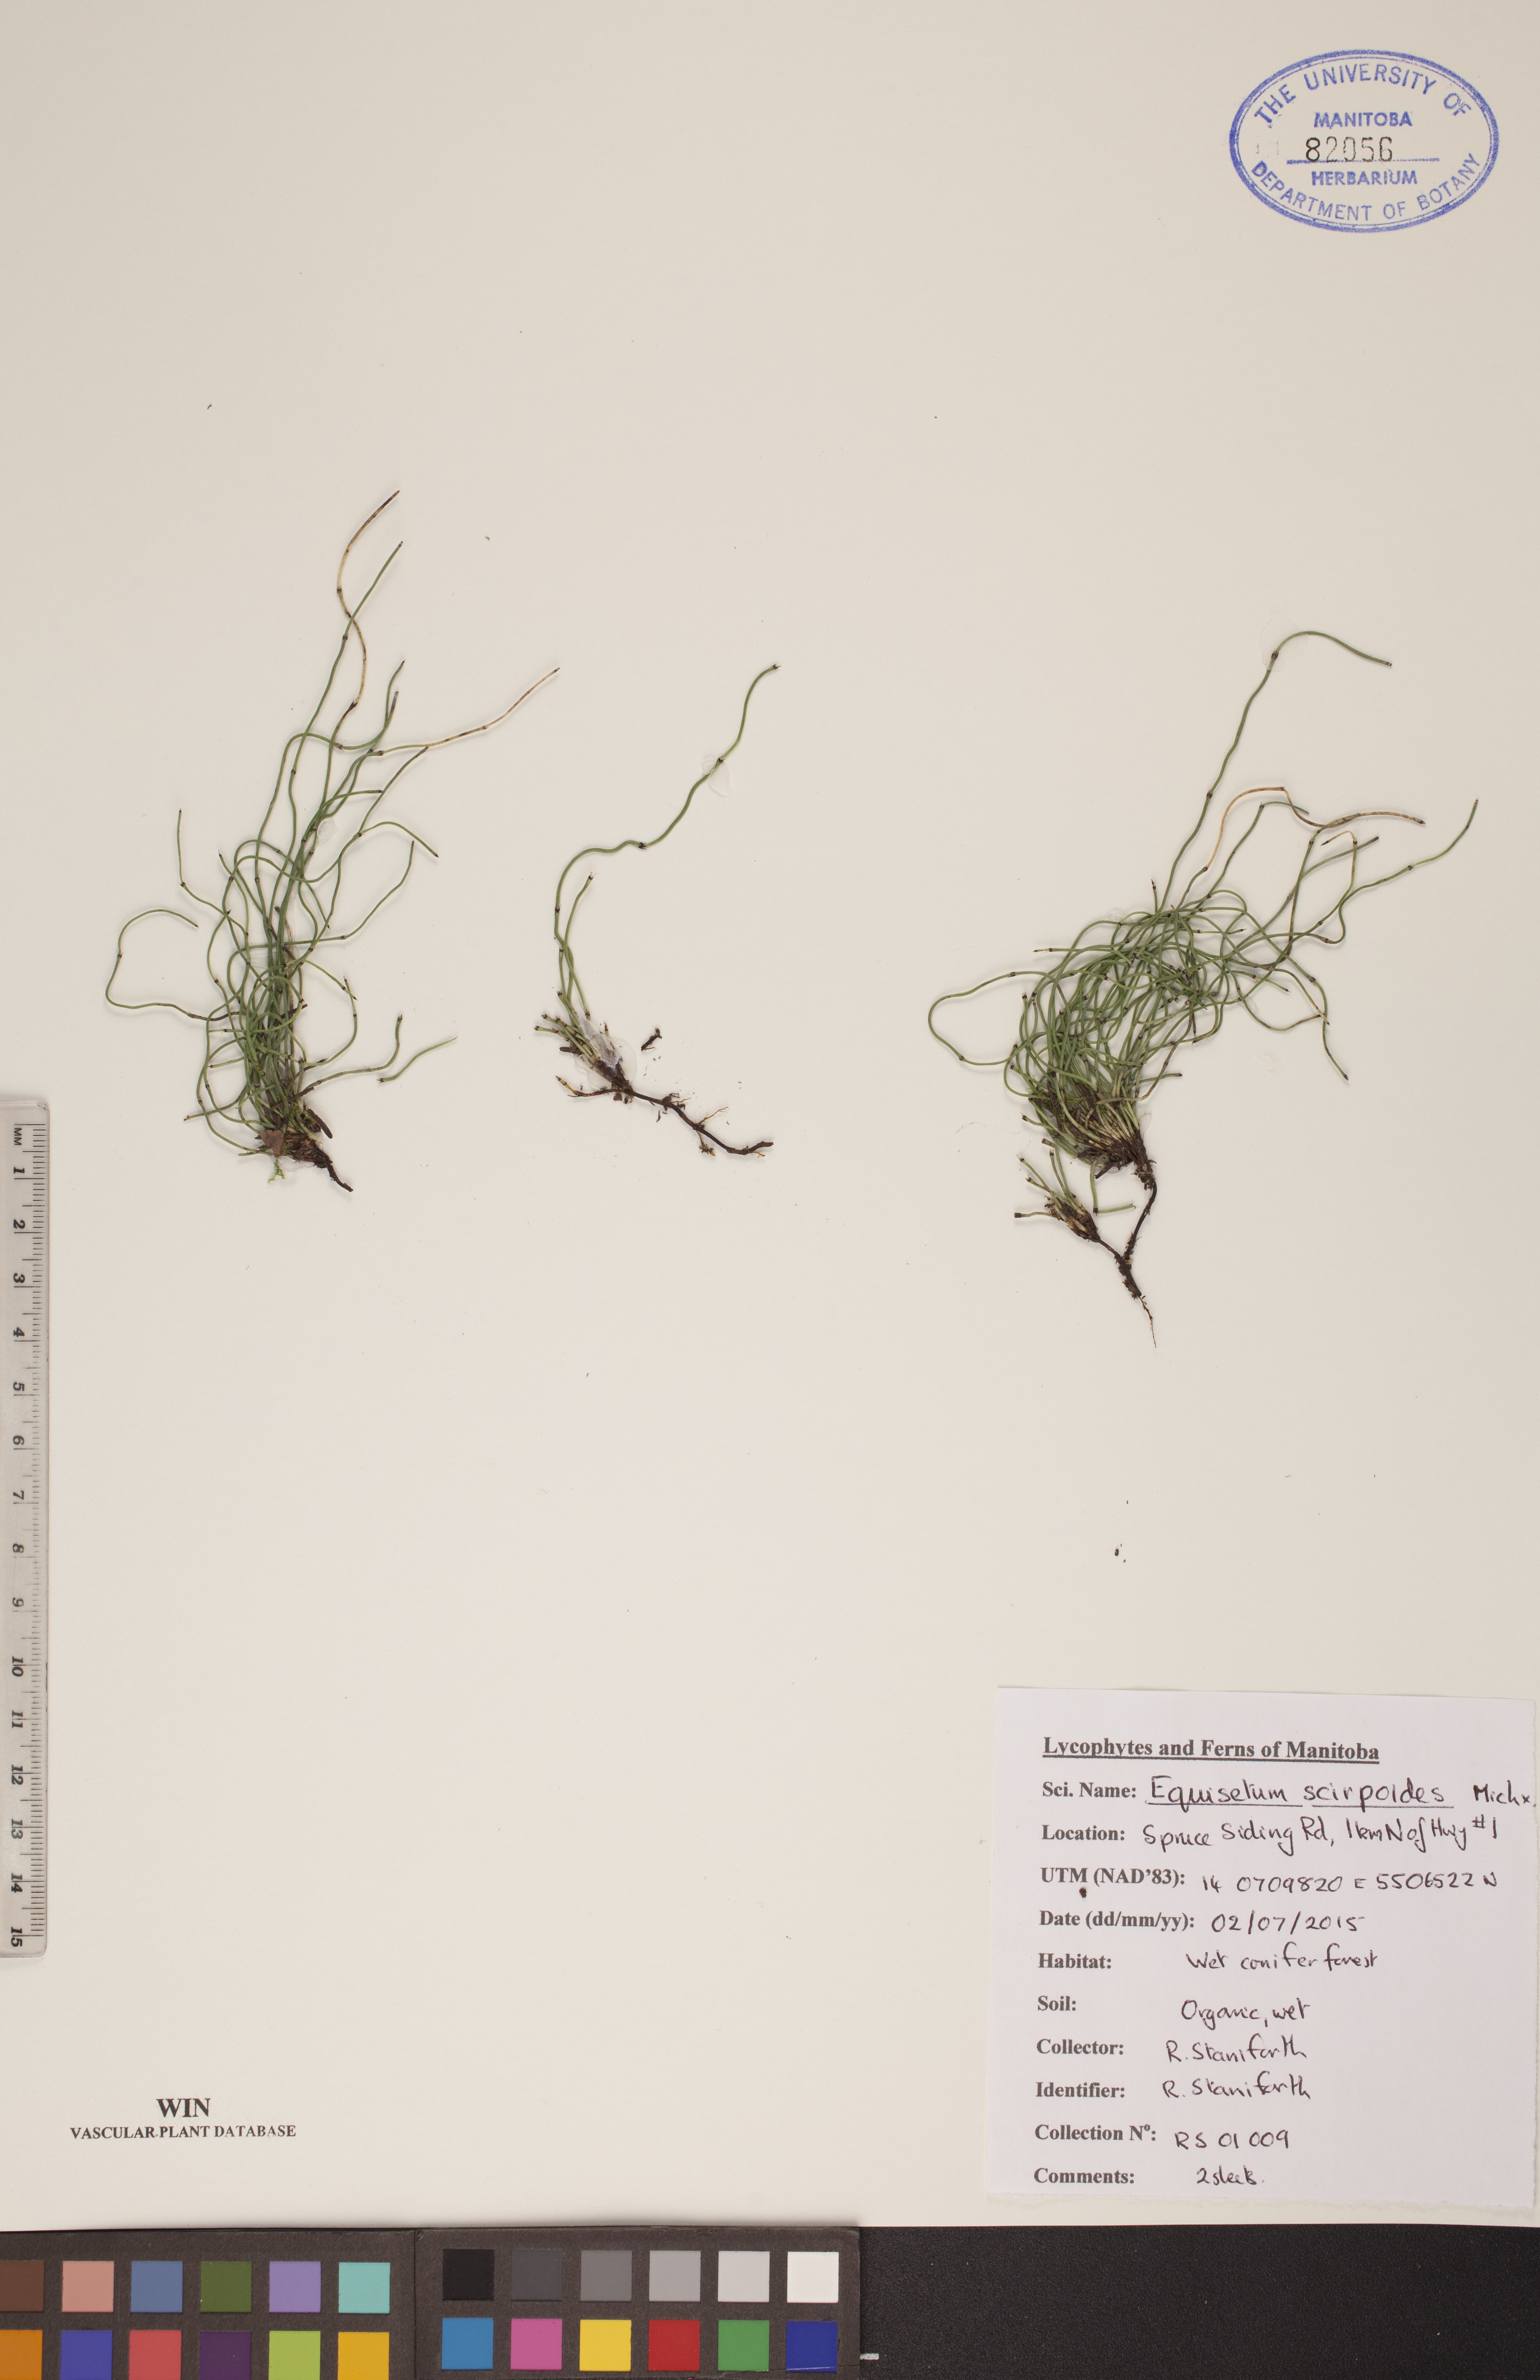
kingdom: Plantae
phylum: Tracheophyta
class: Polypodiopsida
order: Equisetales
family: Equisetaceae
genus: Equisetum
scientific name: Equisetum scirpoides
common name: Delicate horsetail
